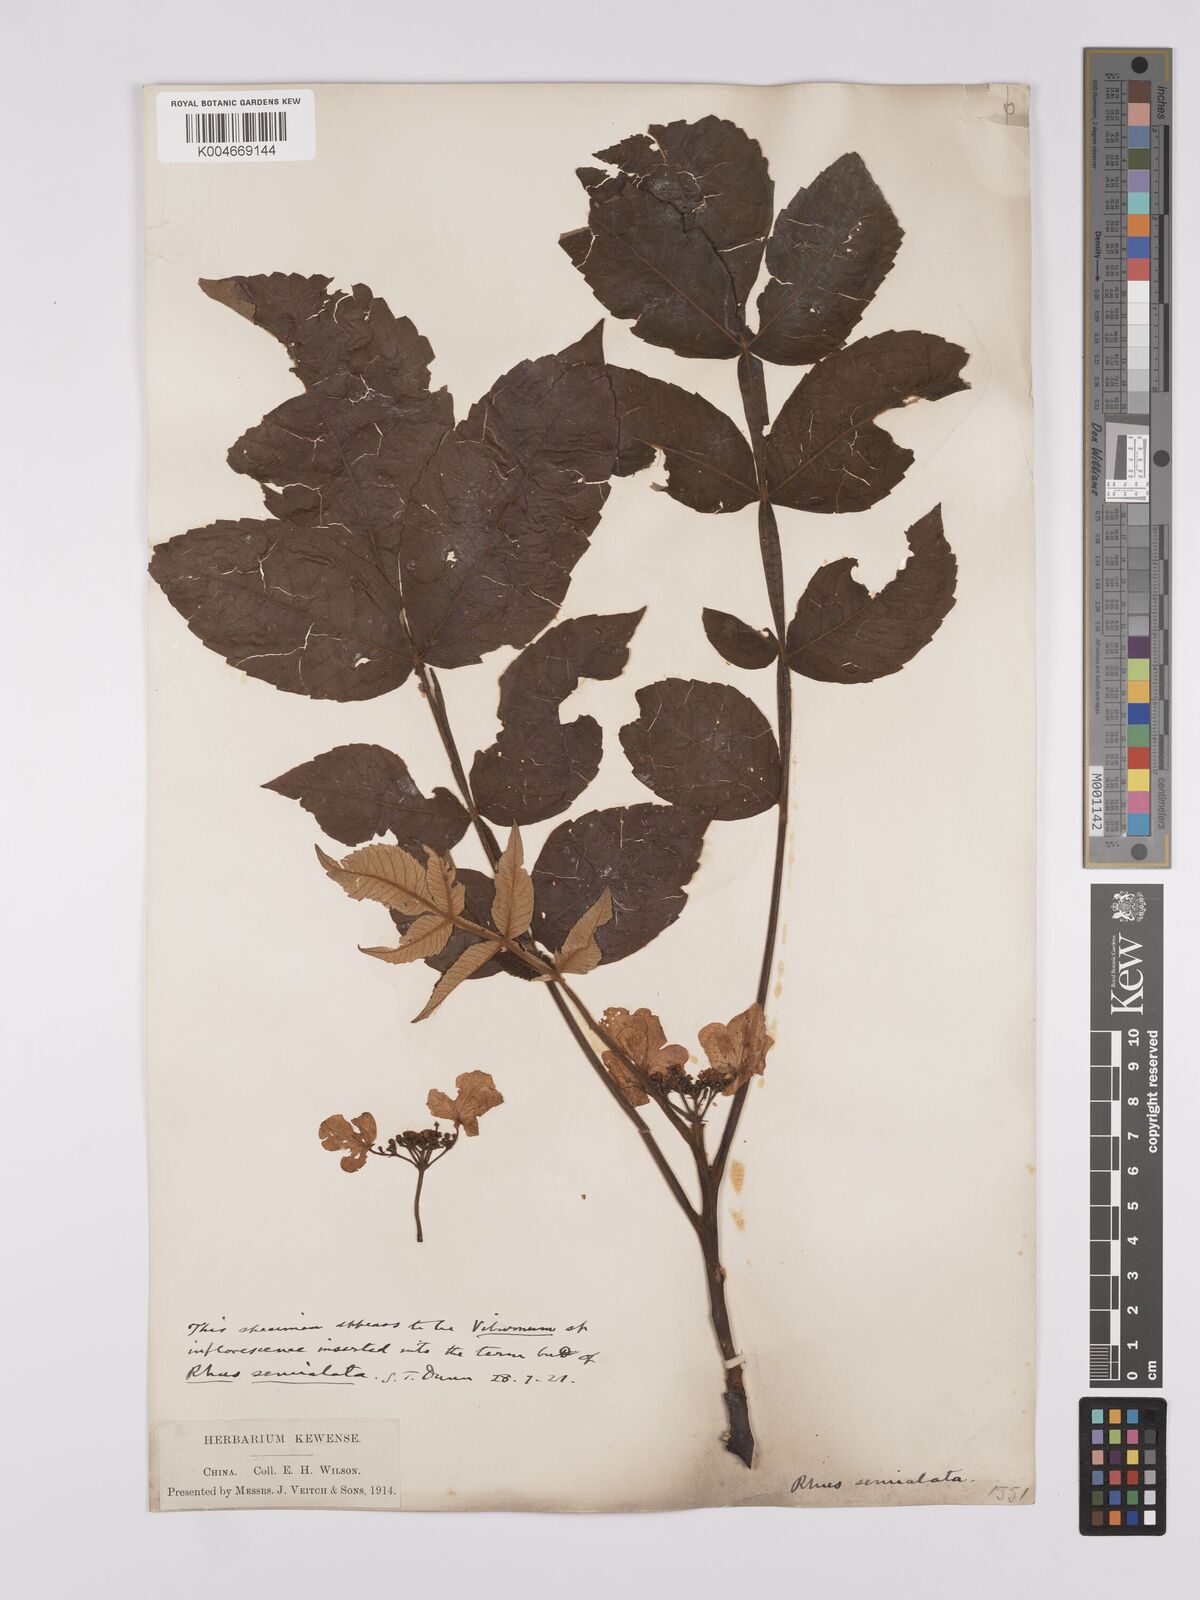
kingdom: Plantae
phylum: Tracheophyta
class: Magnoliopsida
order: Sapindales
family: Simaroubaceae
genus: Brucea
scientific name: Brucea javanica
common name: Macassar kernels
